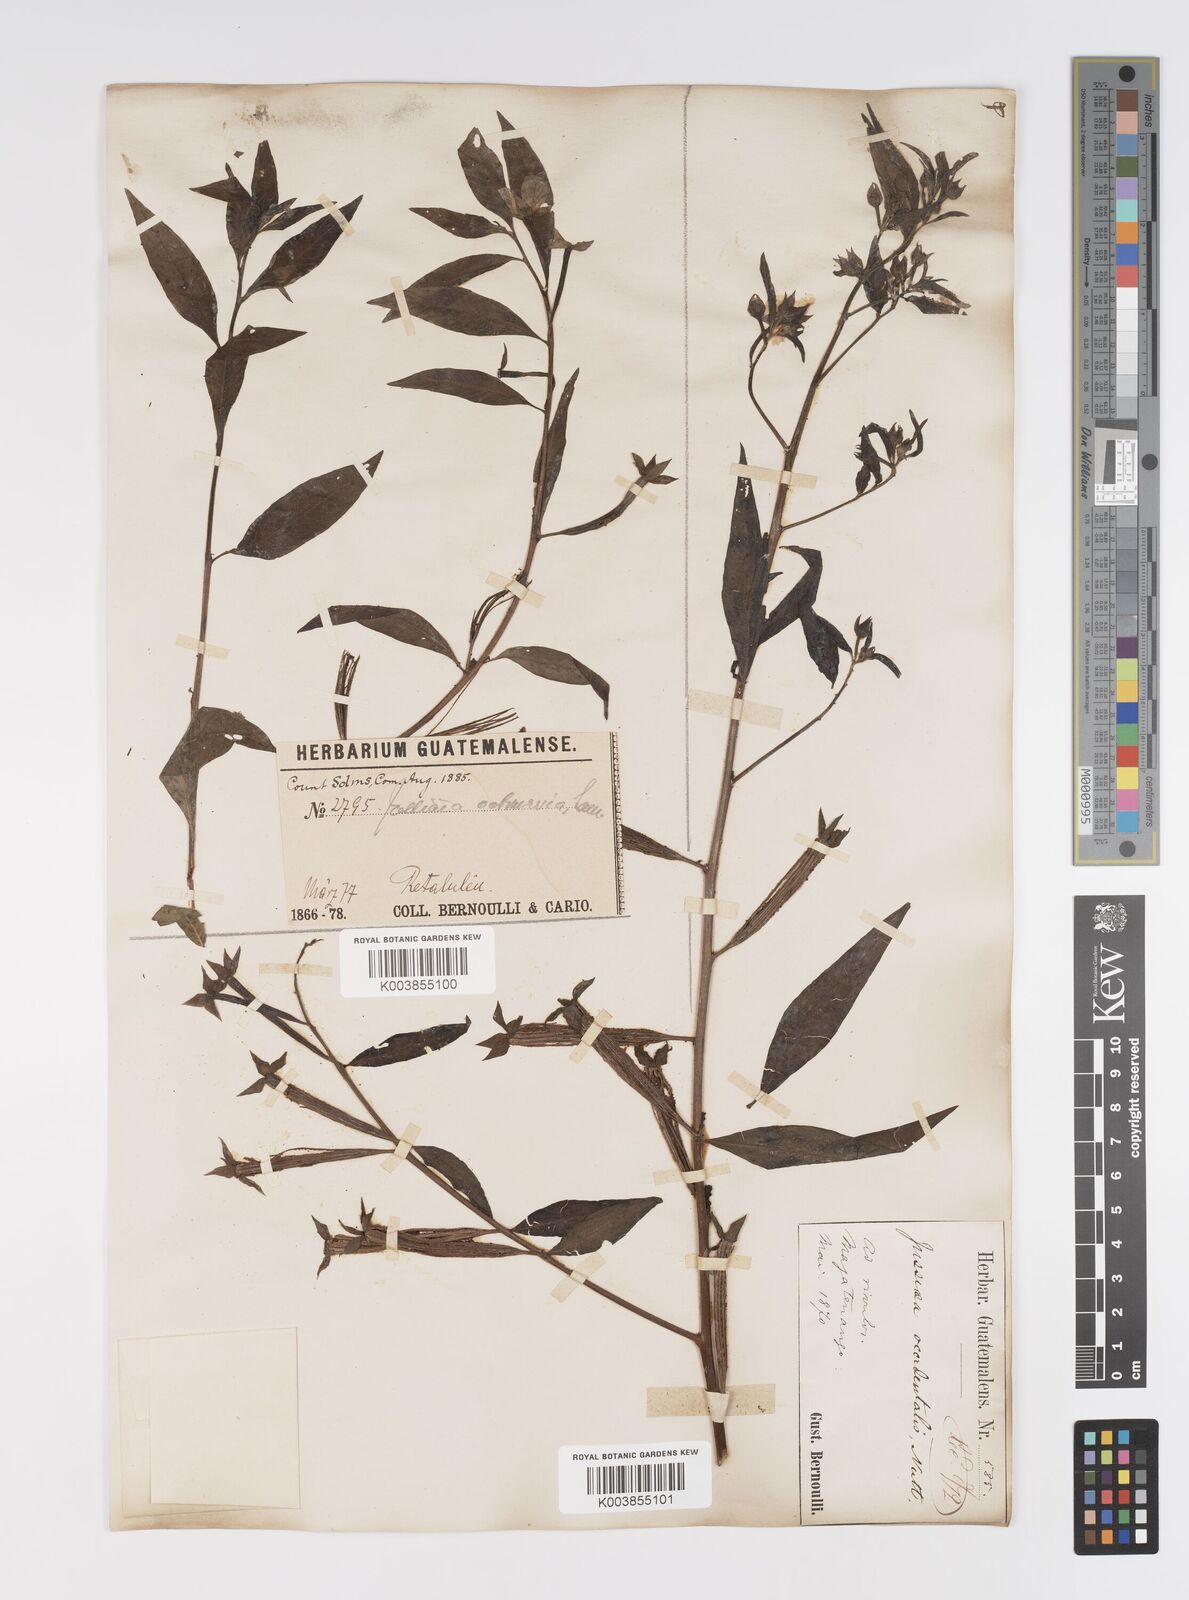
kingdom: Plantae
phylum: Tracheophyta
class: Magnoliopsida
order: Myrtales
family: Onagraceae
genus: Ludwigia
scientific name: Ludwigia octovalvis
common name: Water-primrose
